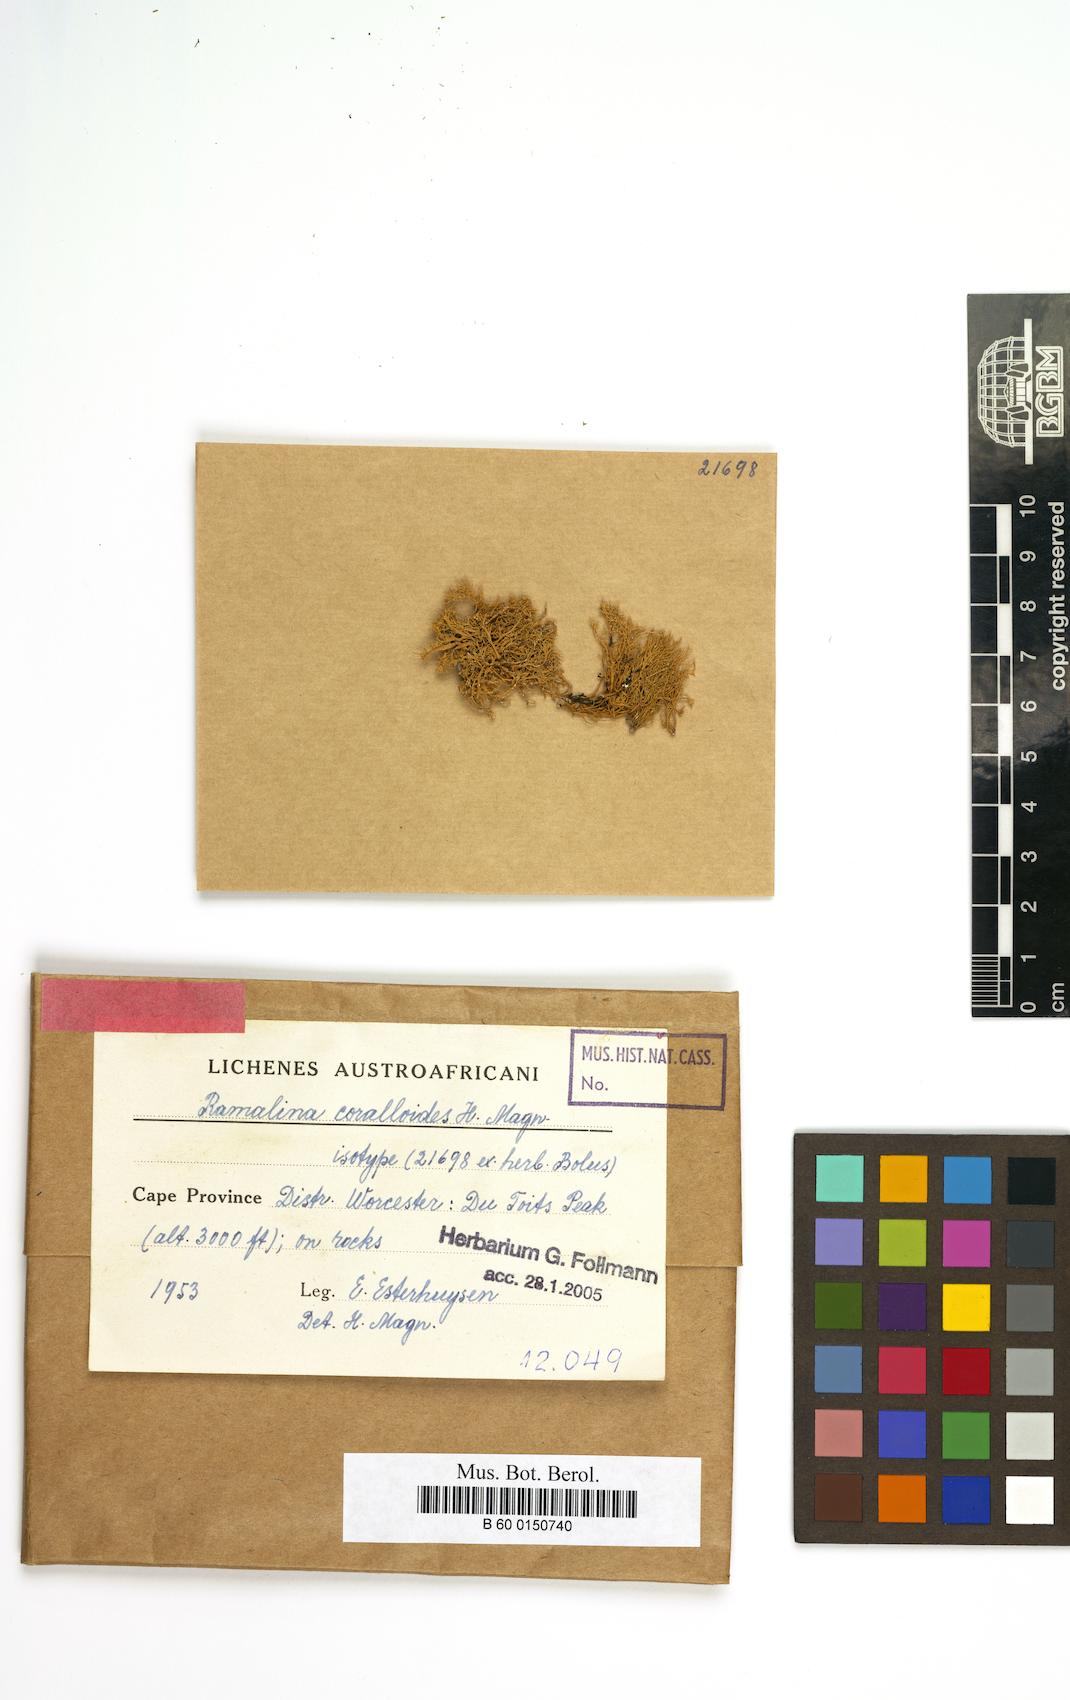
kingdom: Fungi
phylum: Ascomycota
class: Lecanoromycetes
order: Lecanorales
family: Ramalinaceae
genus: Ramalina
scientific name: Ramalina
